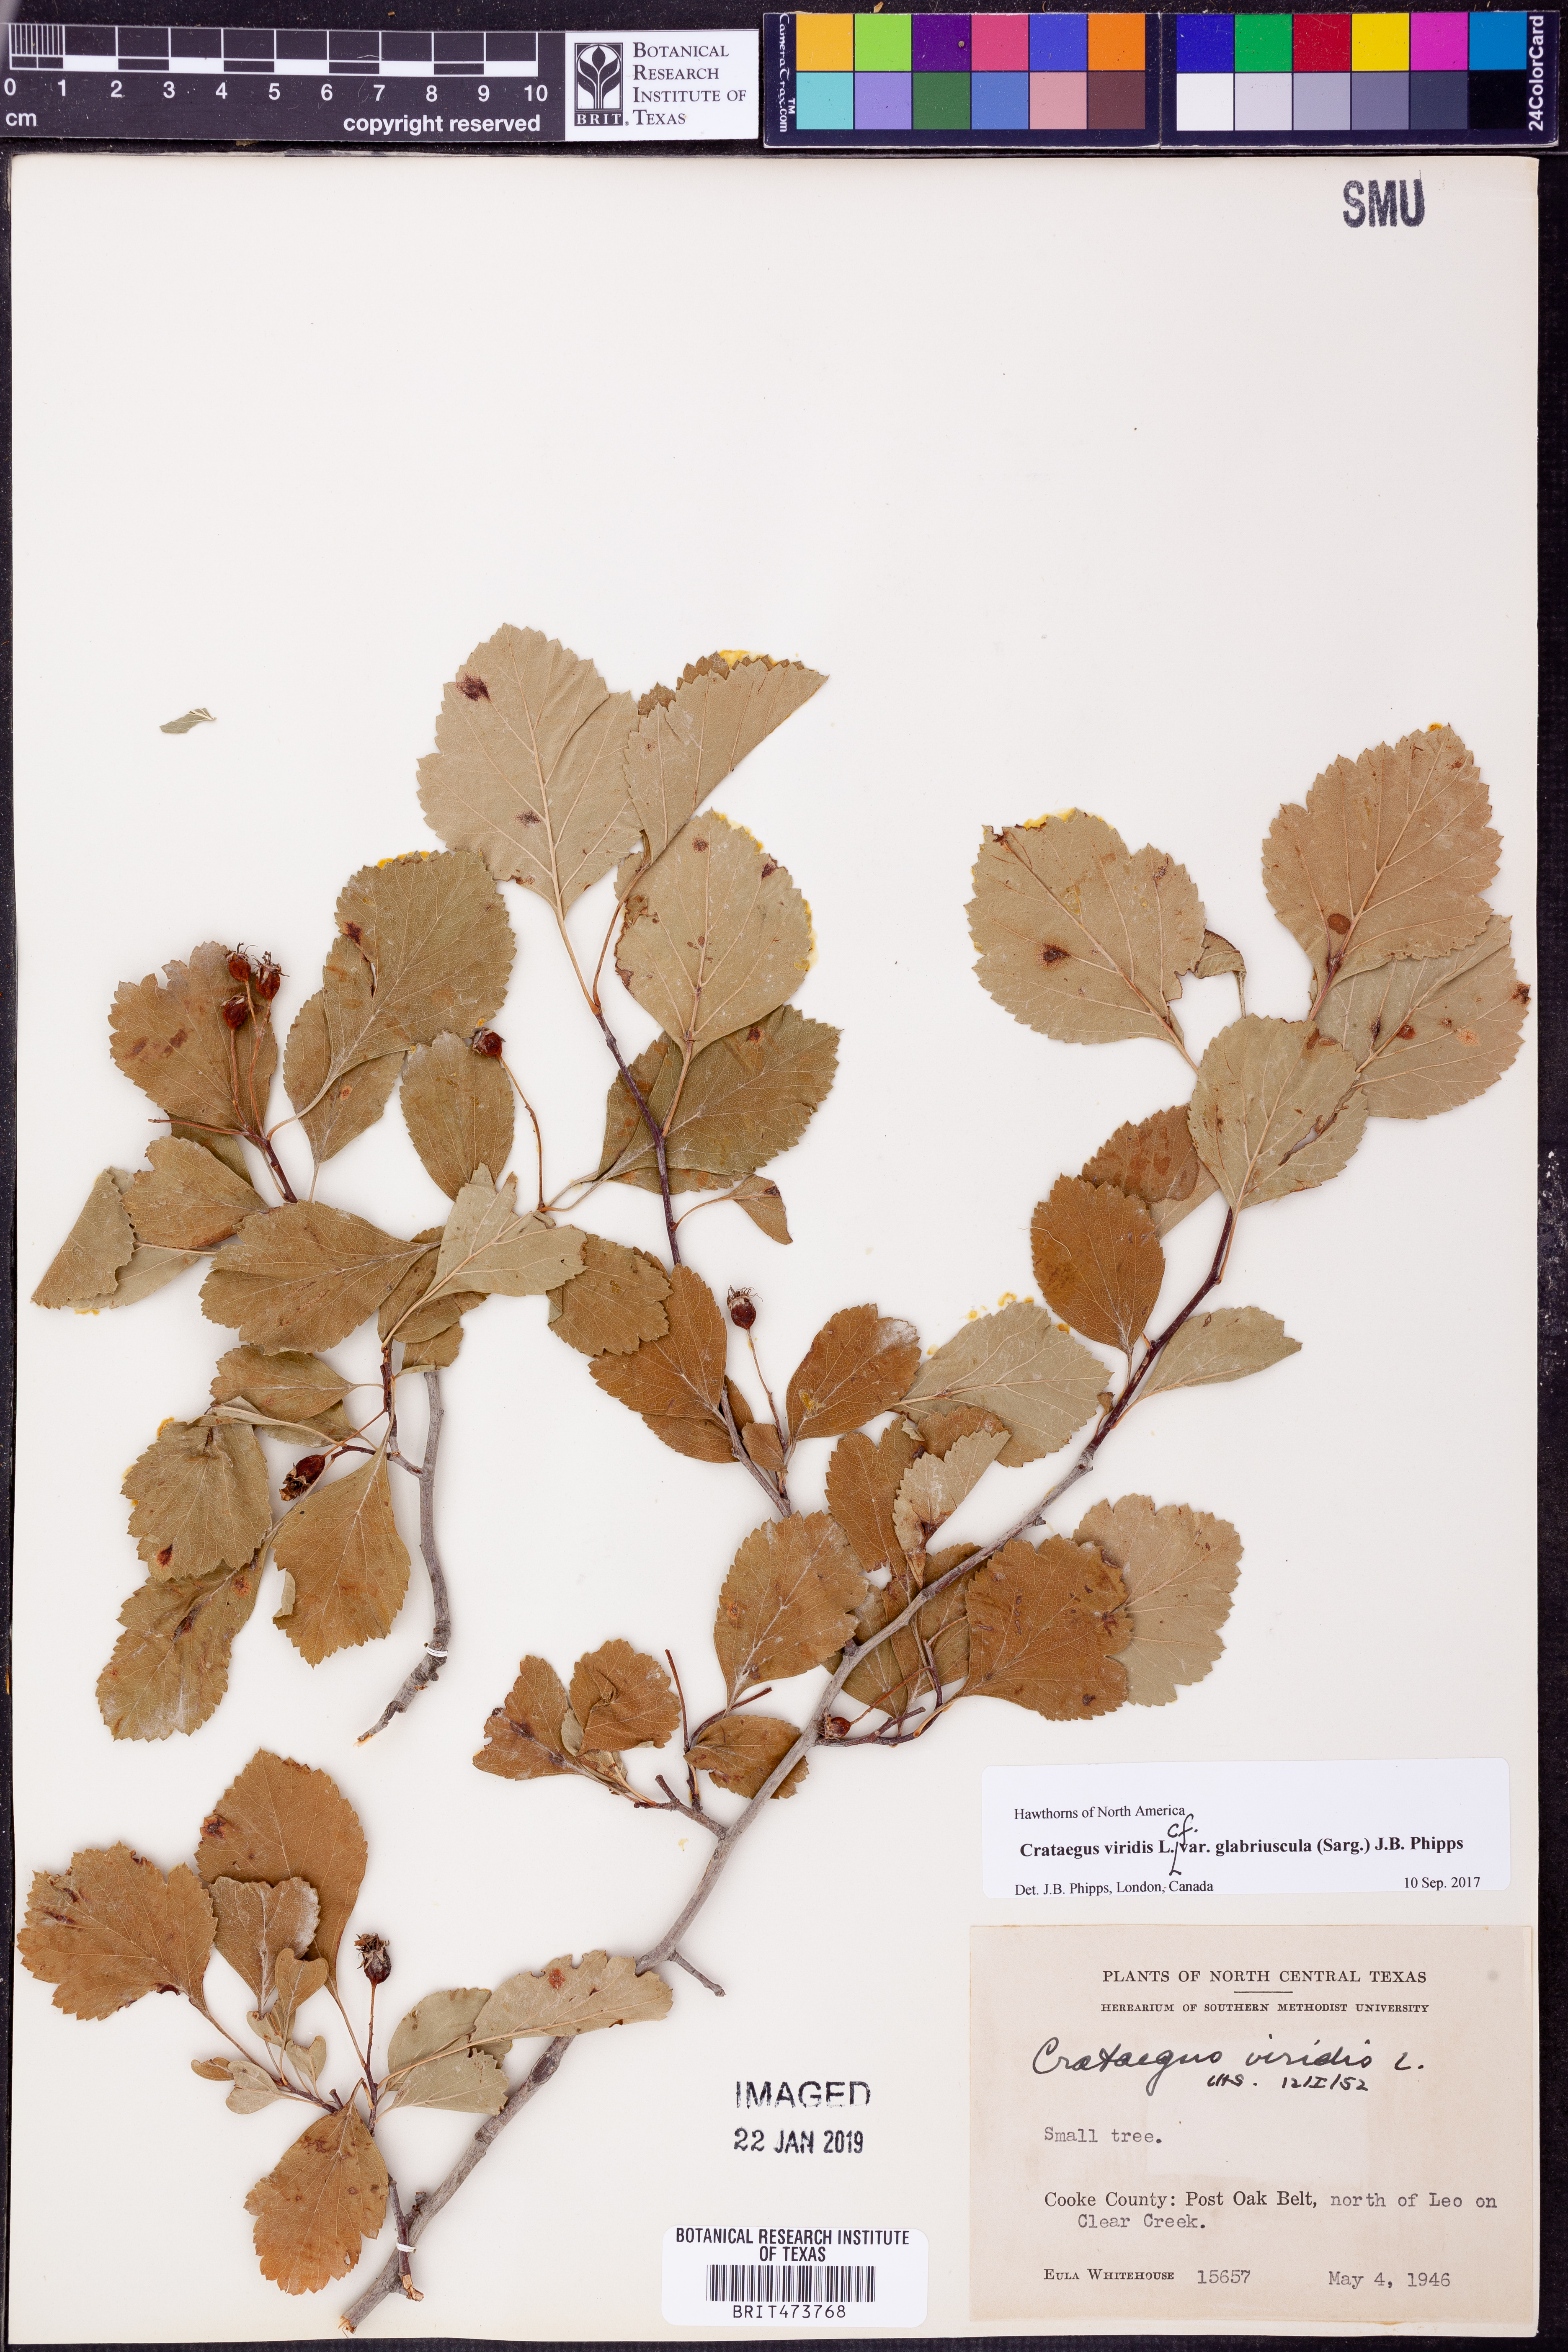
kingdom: Plantae
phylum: Tracheophyta
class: Magnoliopsida
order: Rosales
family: Rosaceae
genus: Crataegus
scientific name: Crataegus viridis
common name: Southernthorn
